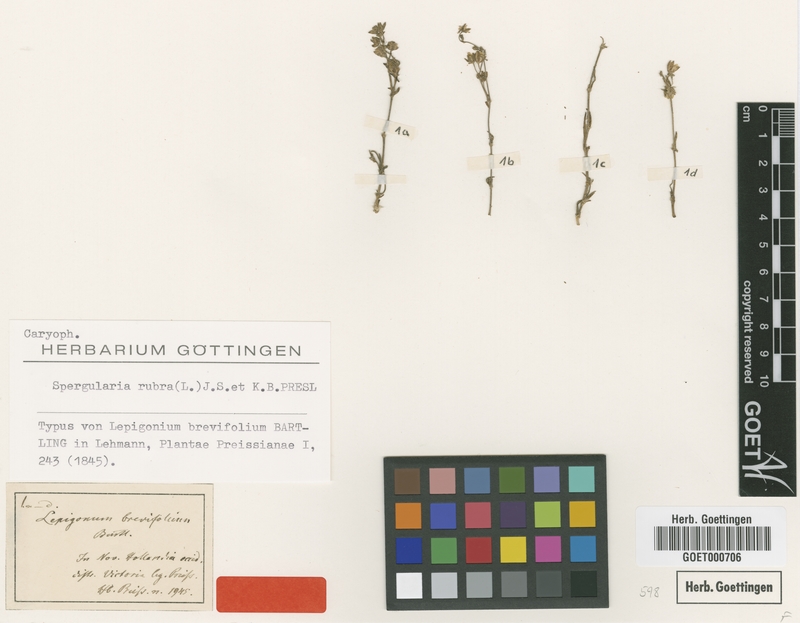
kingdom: Plantae
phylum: Tracheophyta
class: Magnoliopsida
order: Caryophyllales
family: Caryophyllaceae
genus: Spergularia
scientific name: Spergularia rubra
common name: Red sand-spurrey
